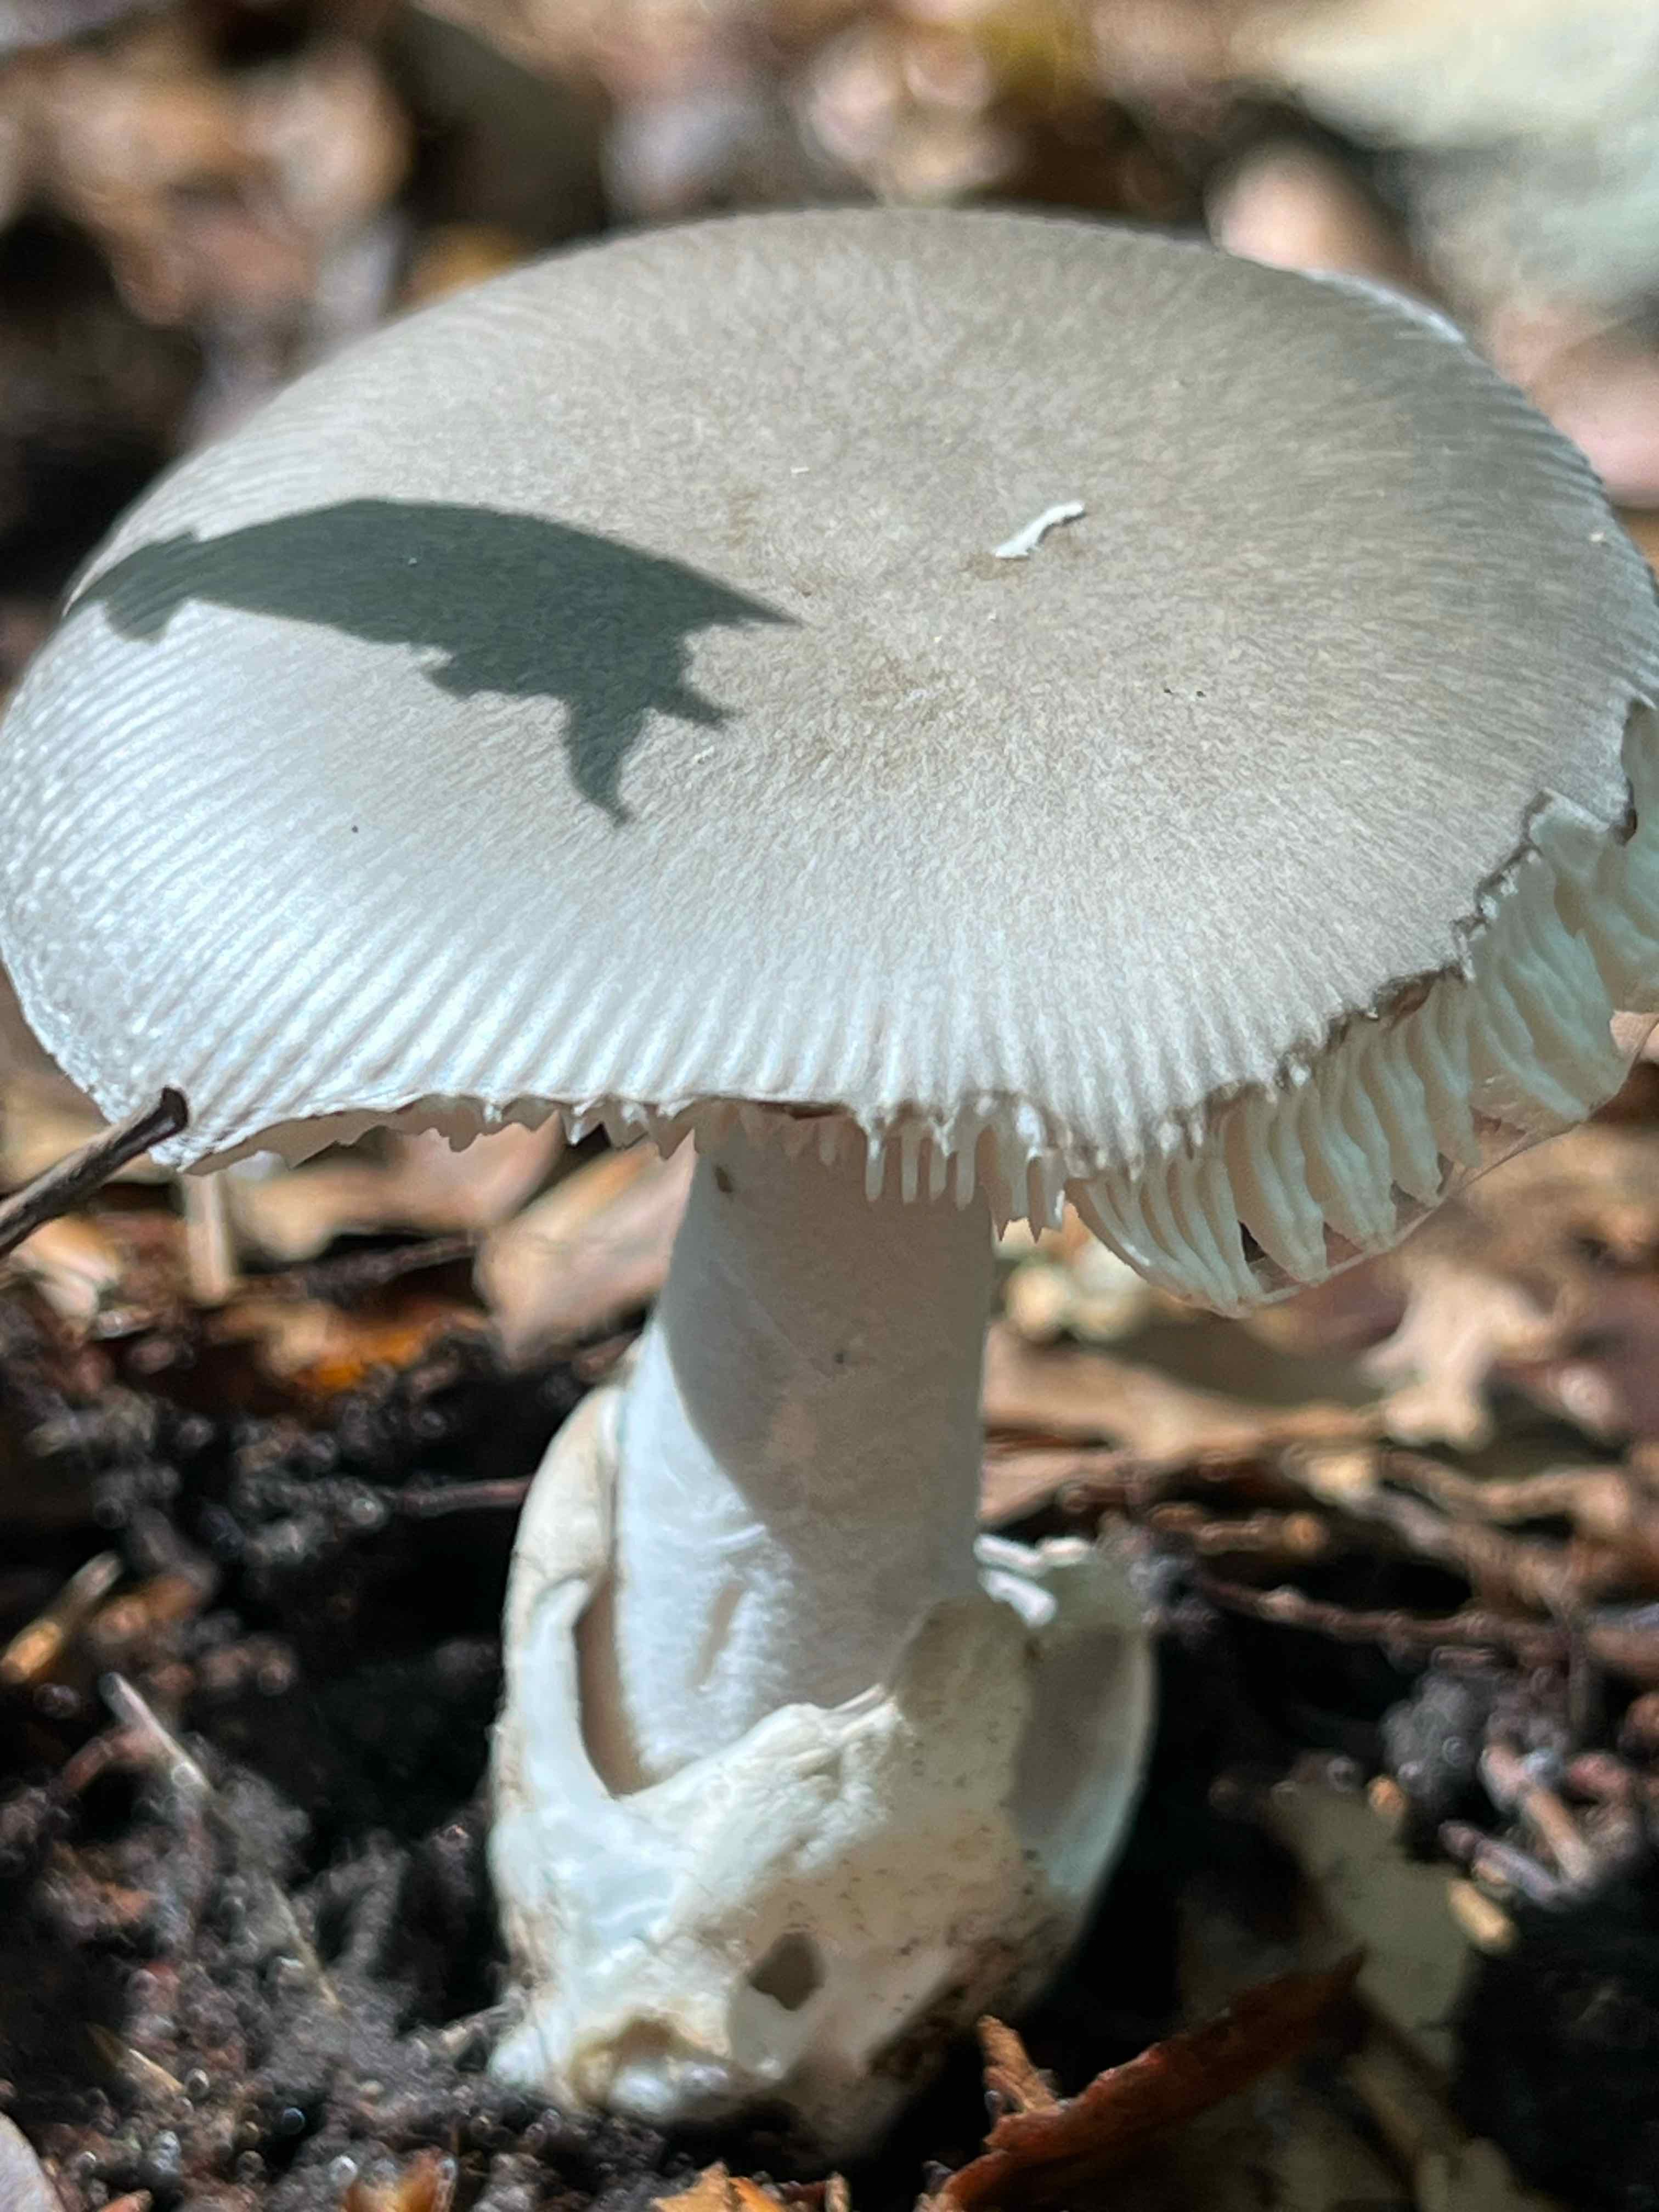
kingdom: Fungi
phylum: Basidiomycota
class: Agaricomycetes
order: Agaricales
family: Amanitaceae
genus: Amanita
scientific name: Amanita vaginata
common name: grå kam-fluesvamp
